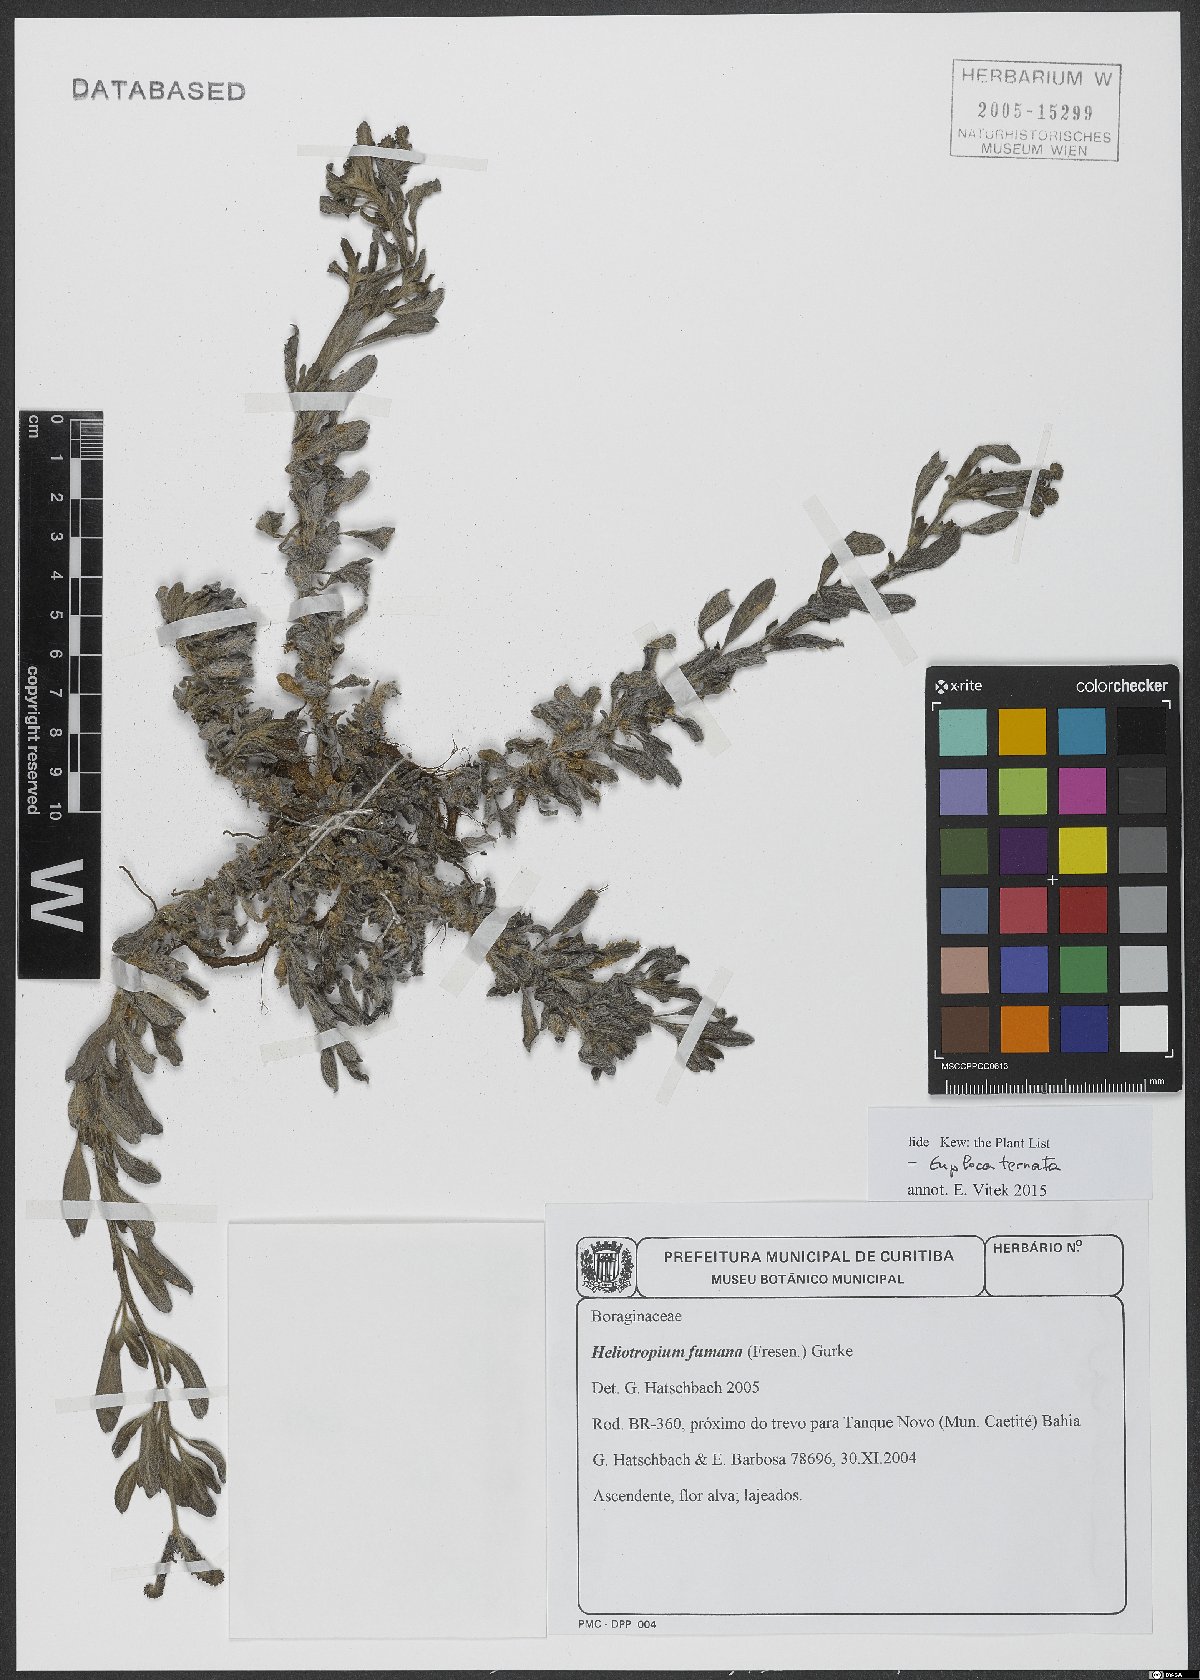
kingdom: Plantae
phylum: Tracheophyta
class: Magnoliopsida
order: Boraginales
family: Heliotropiaceae
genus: Euploca
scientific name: Euploca humilis
